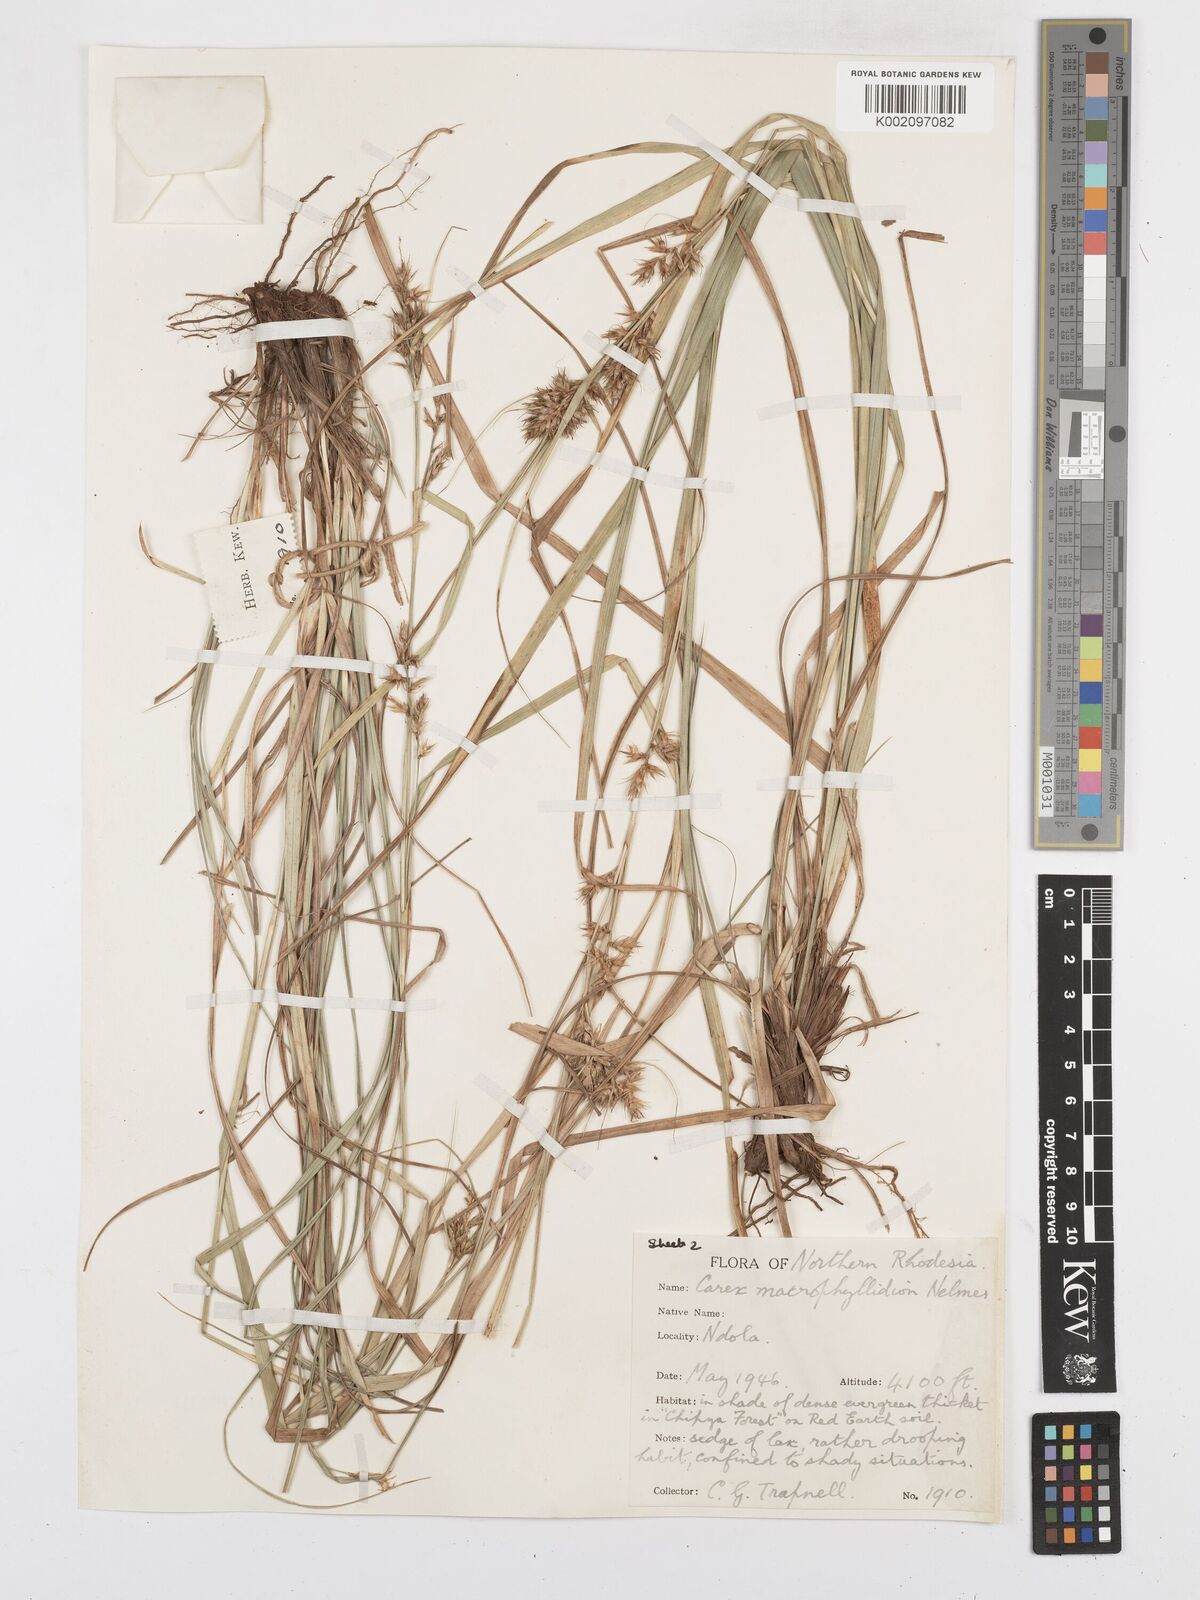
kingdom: Plantae
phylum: Tracheophyta
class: Liliopsida
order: Poales
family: Cyperaceae
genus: Carex
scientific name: Carex macrophyllidion
